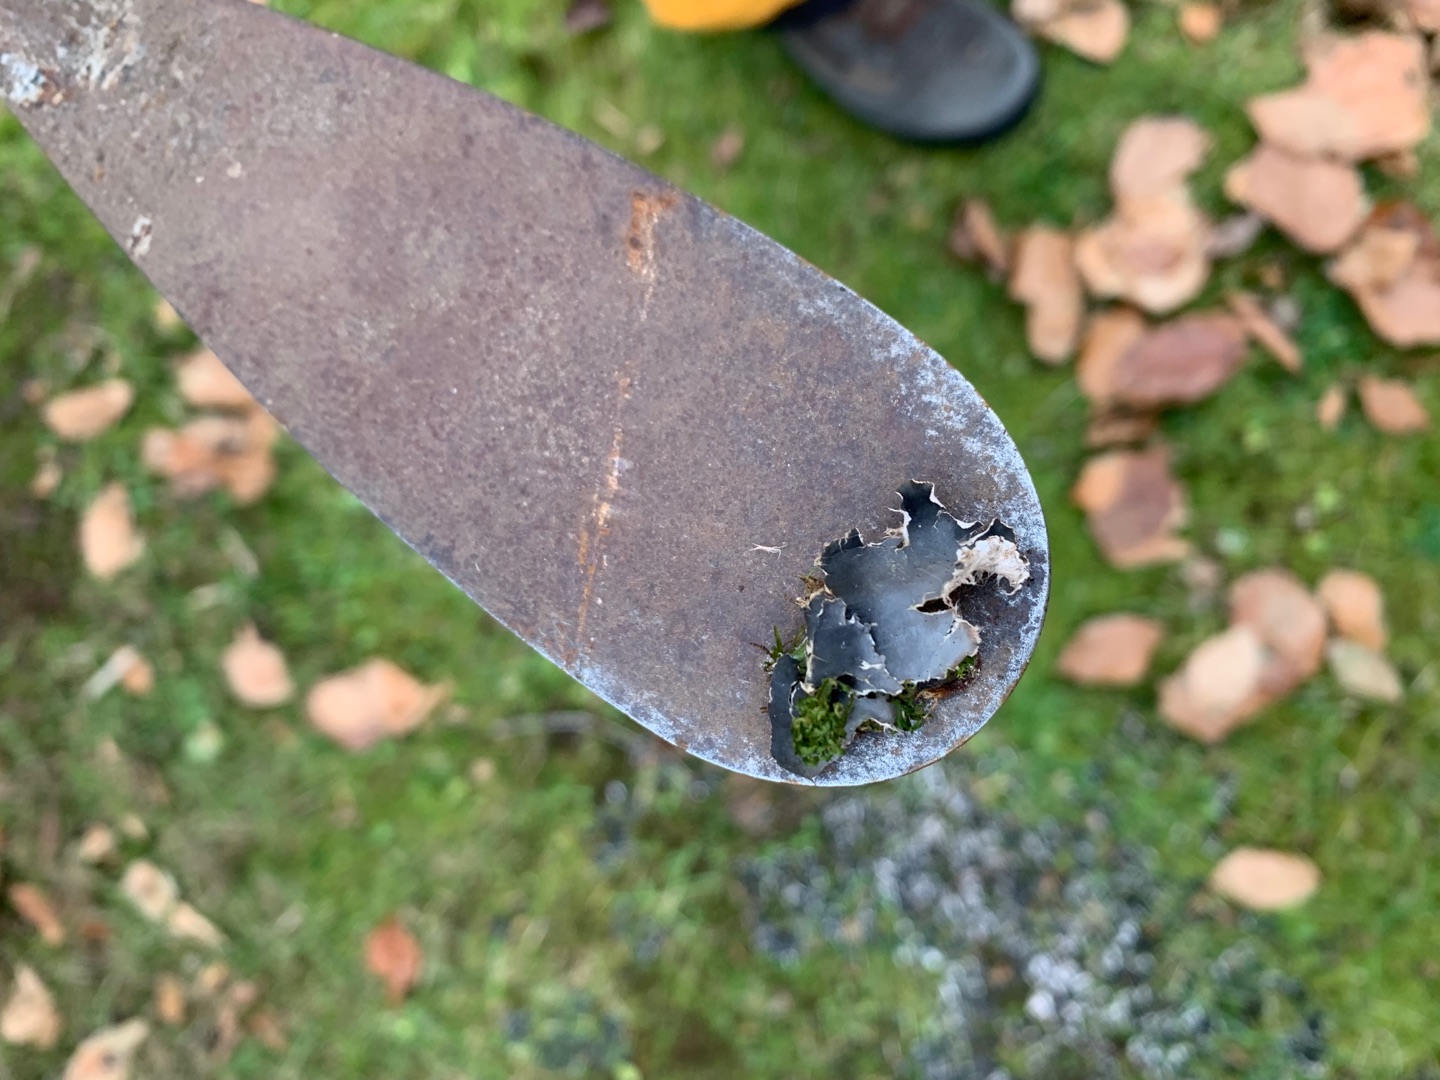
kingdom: Fungi
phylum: Ascomycota
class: Lecanoromycetes
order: Peltigerales
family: Peltigeraceae
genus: Peltigera
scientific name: Peltigera hymenina
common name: Hinde-skjoldlav
